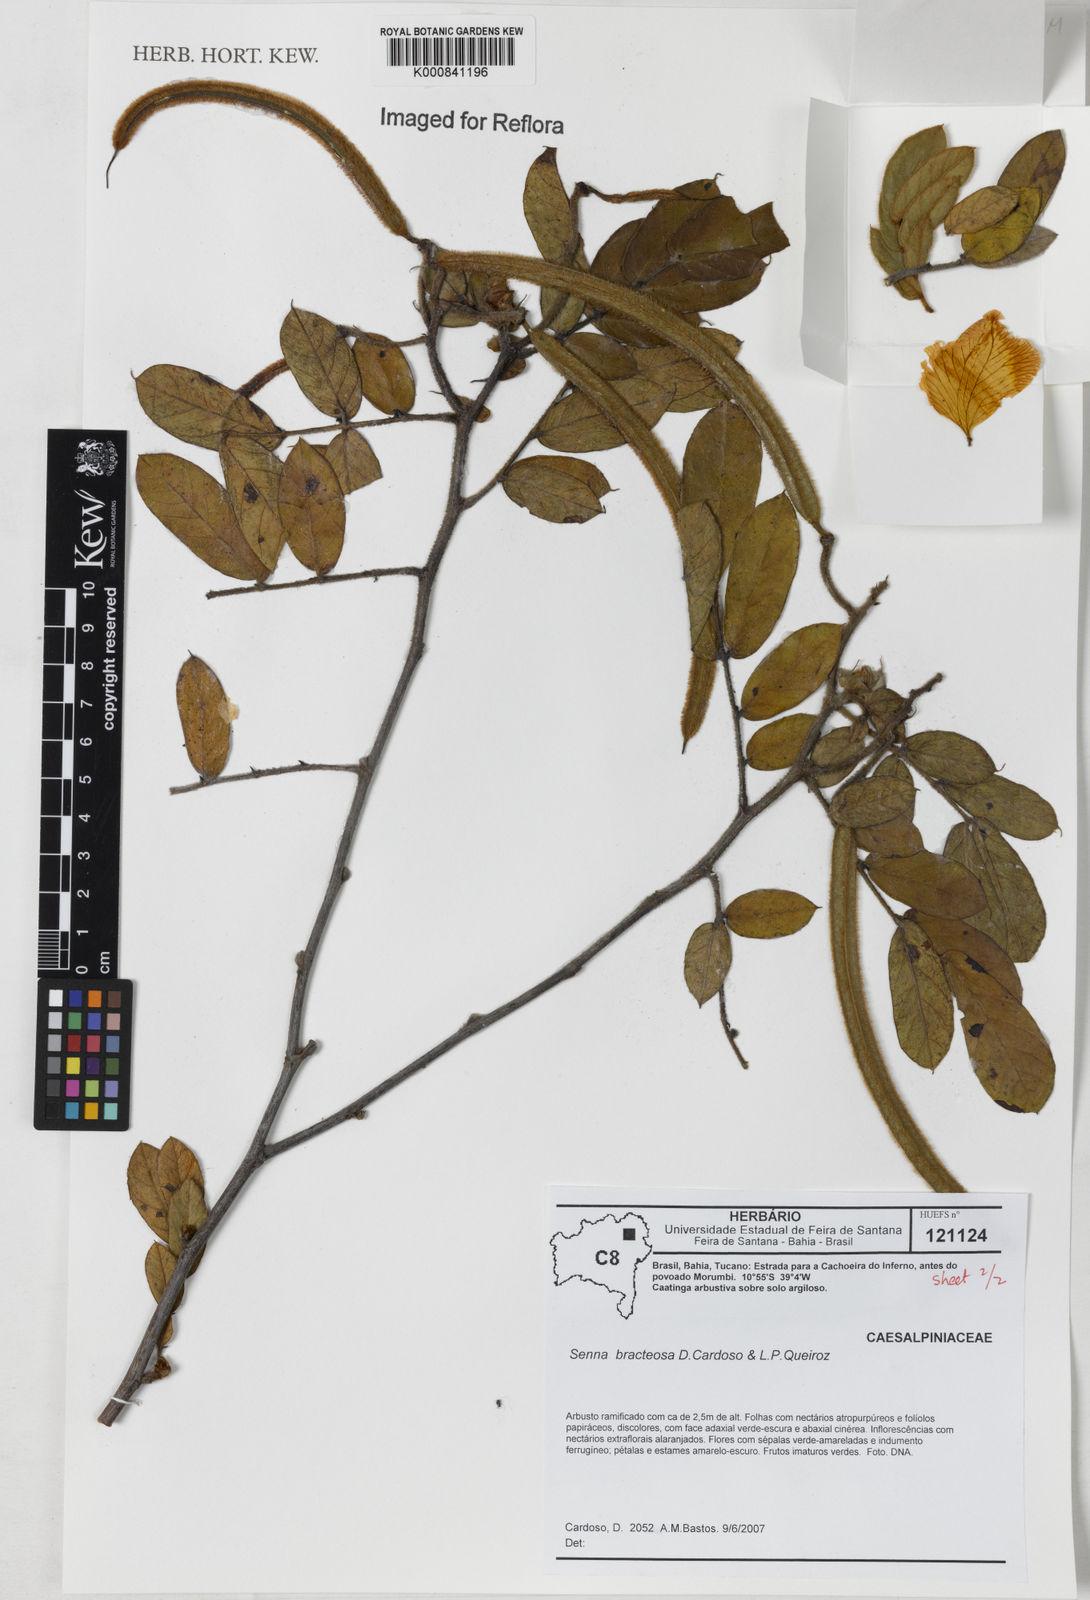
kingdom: Plantae
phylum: Tracheophyta
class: Magnoliopsida
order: Fabales
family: Fabaceae
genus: Senna
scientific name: Senna bracteosa
